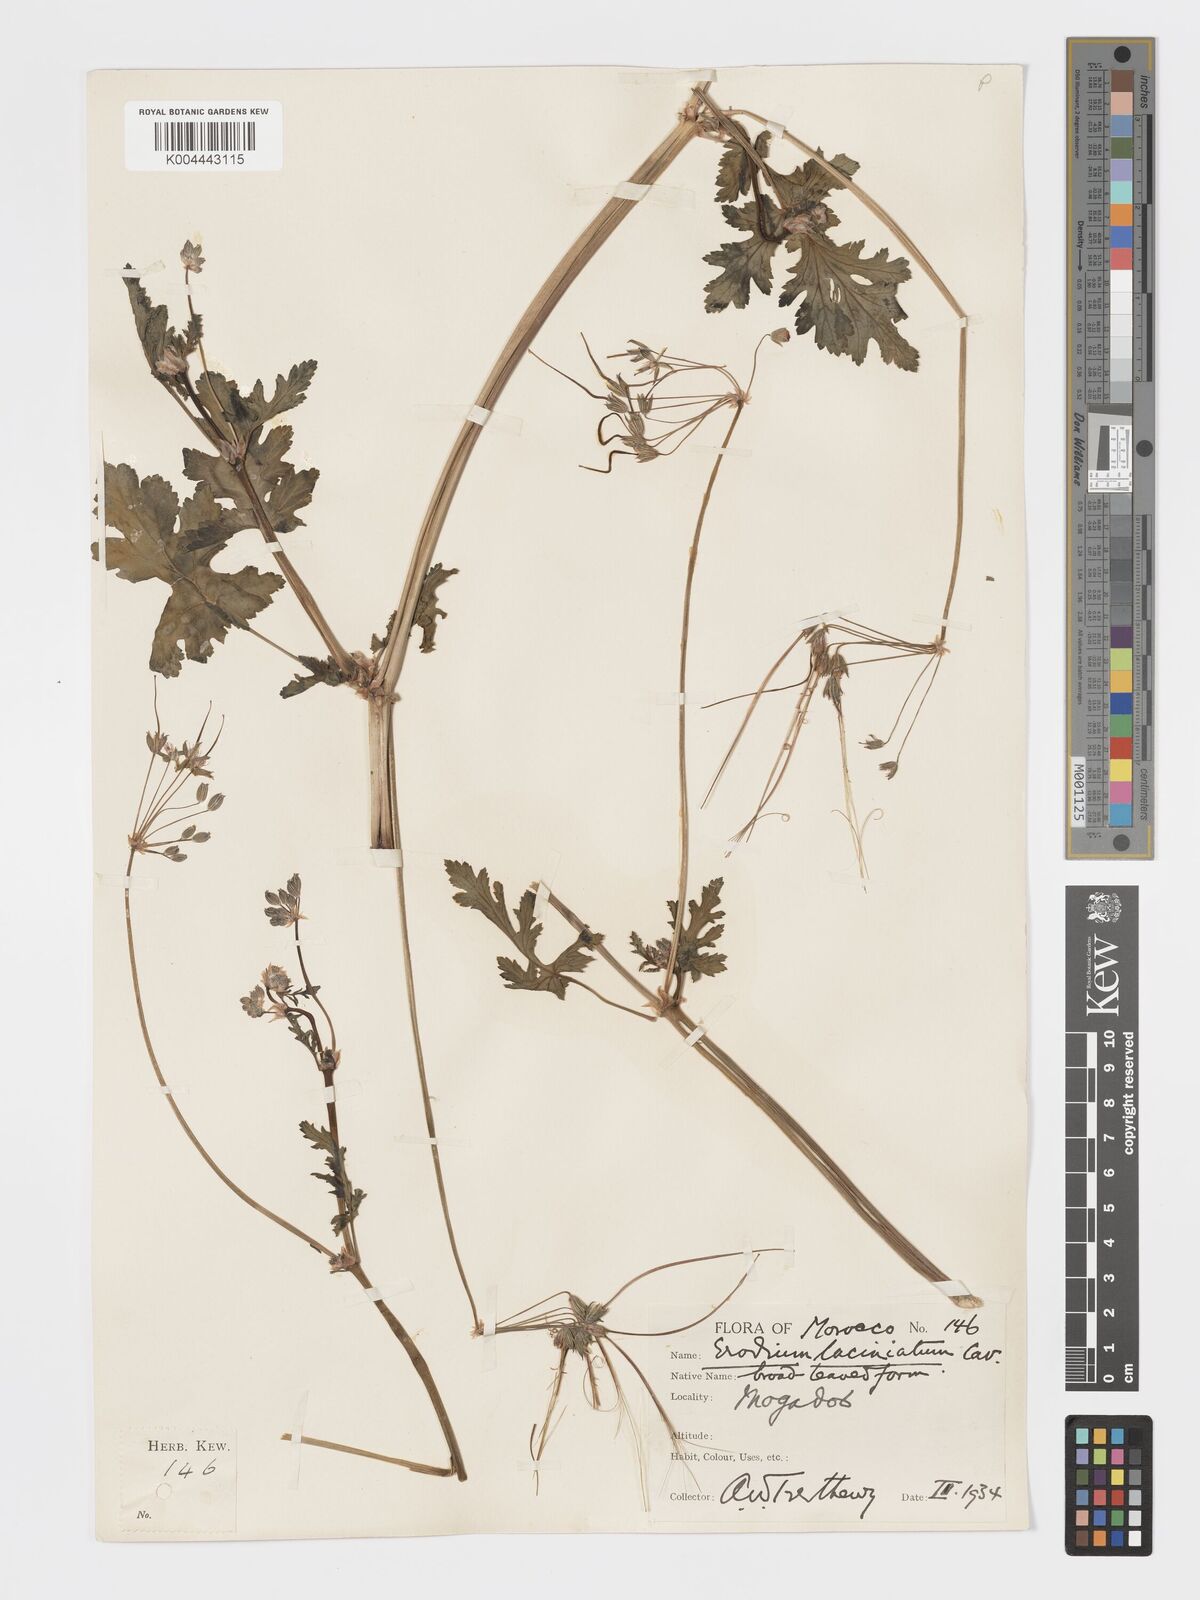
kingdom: Plantae
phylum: Tracheophyta
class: Magnoliopsida
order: Geraniales
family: Geraniaceae
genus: Erodium
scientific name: Erodium hesperium
